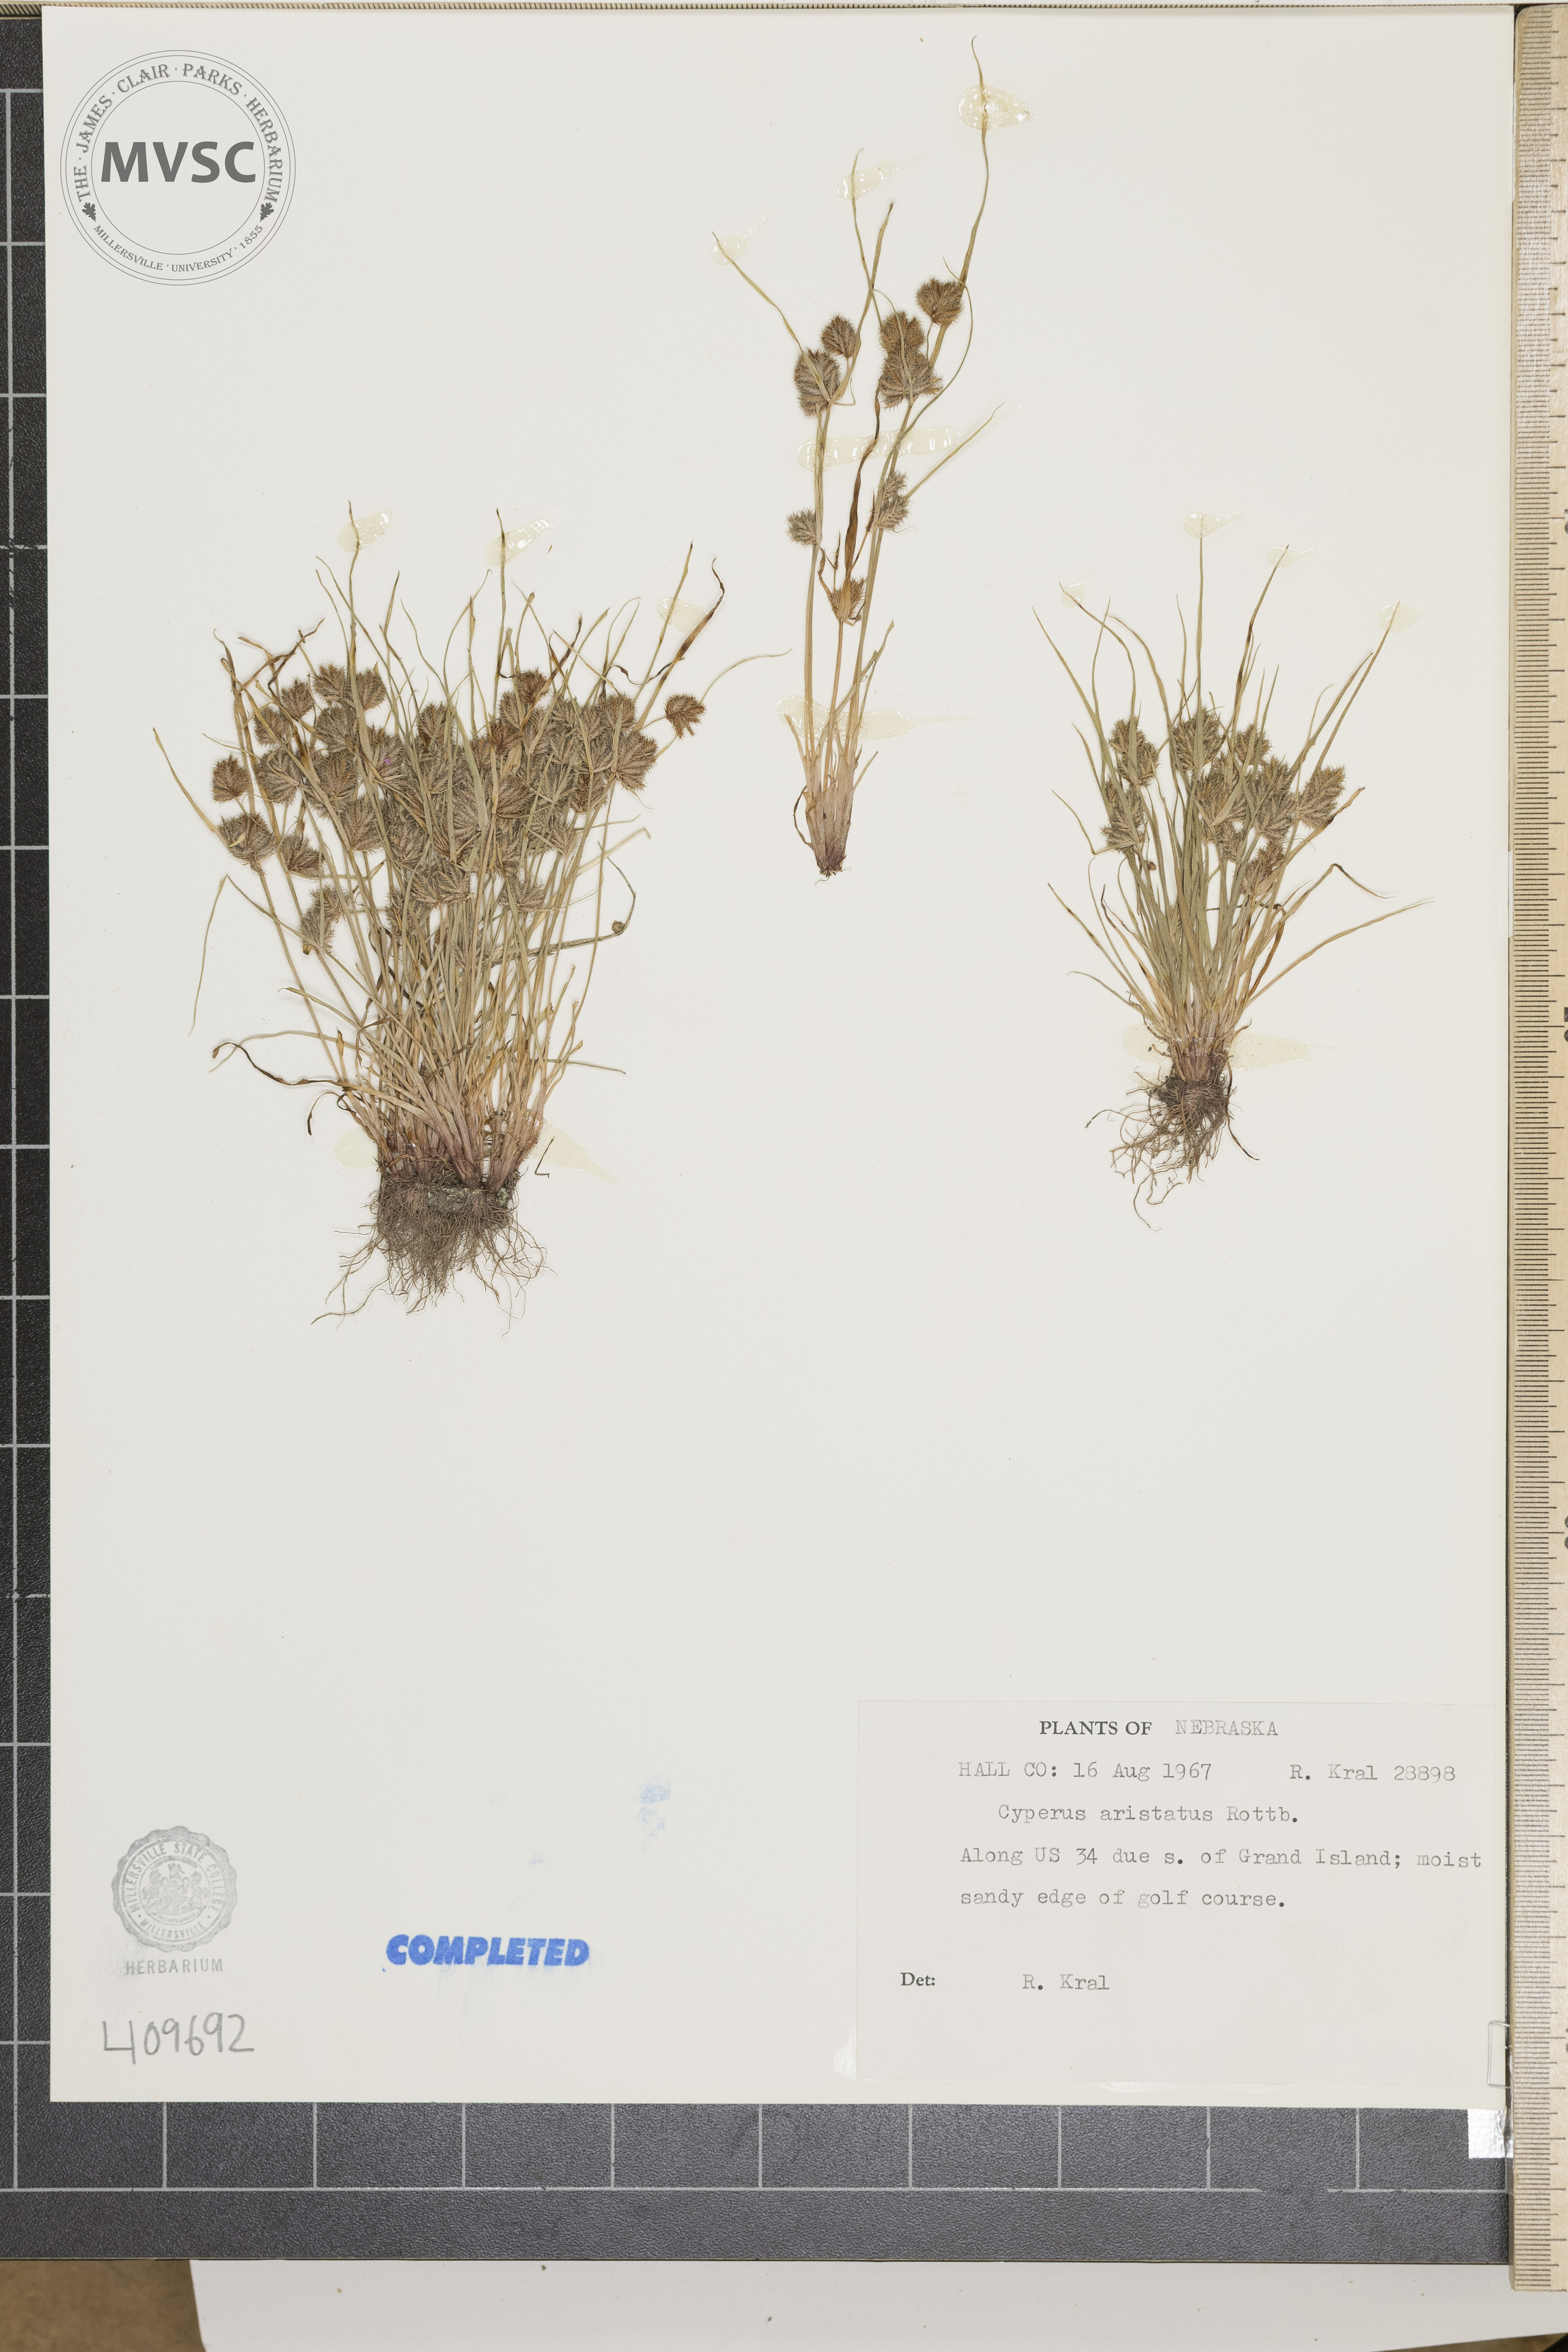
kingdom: Plantae
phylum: Tracheophyta
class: Liliopsida
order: Poales
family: Cyperaceae
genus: Cyperus
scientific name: Cyperus
